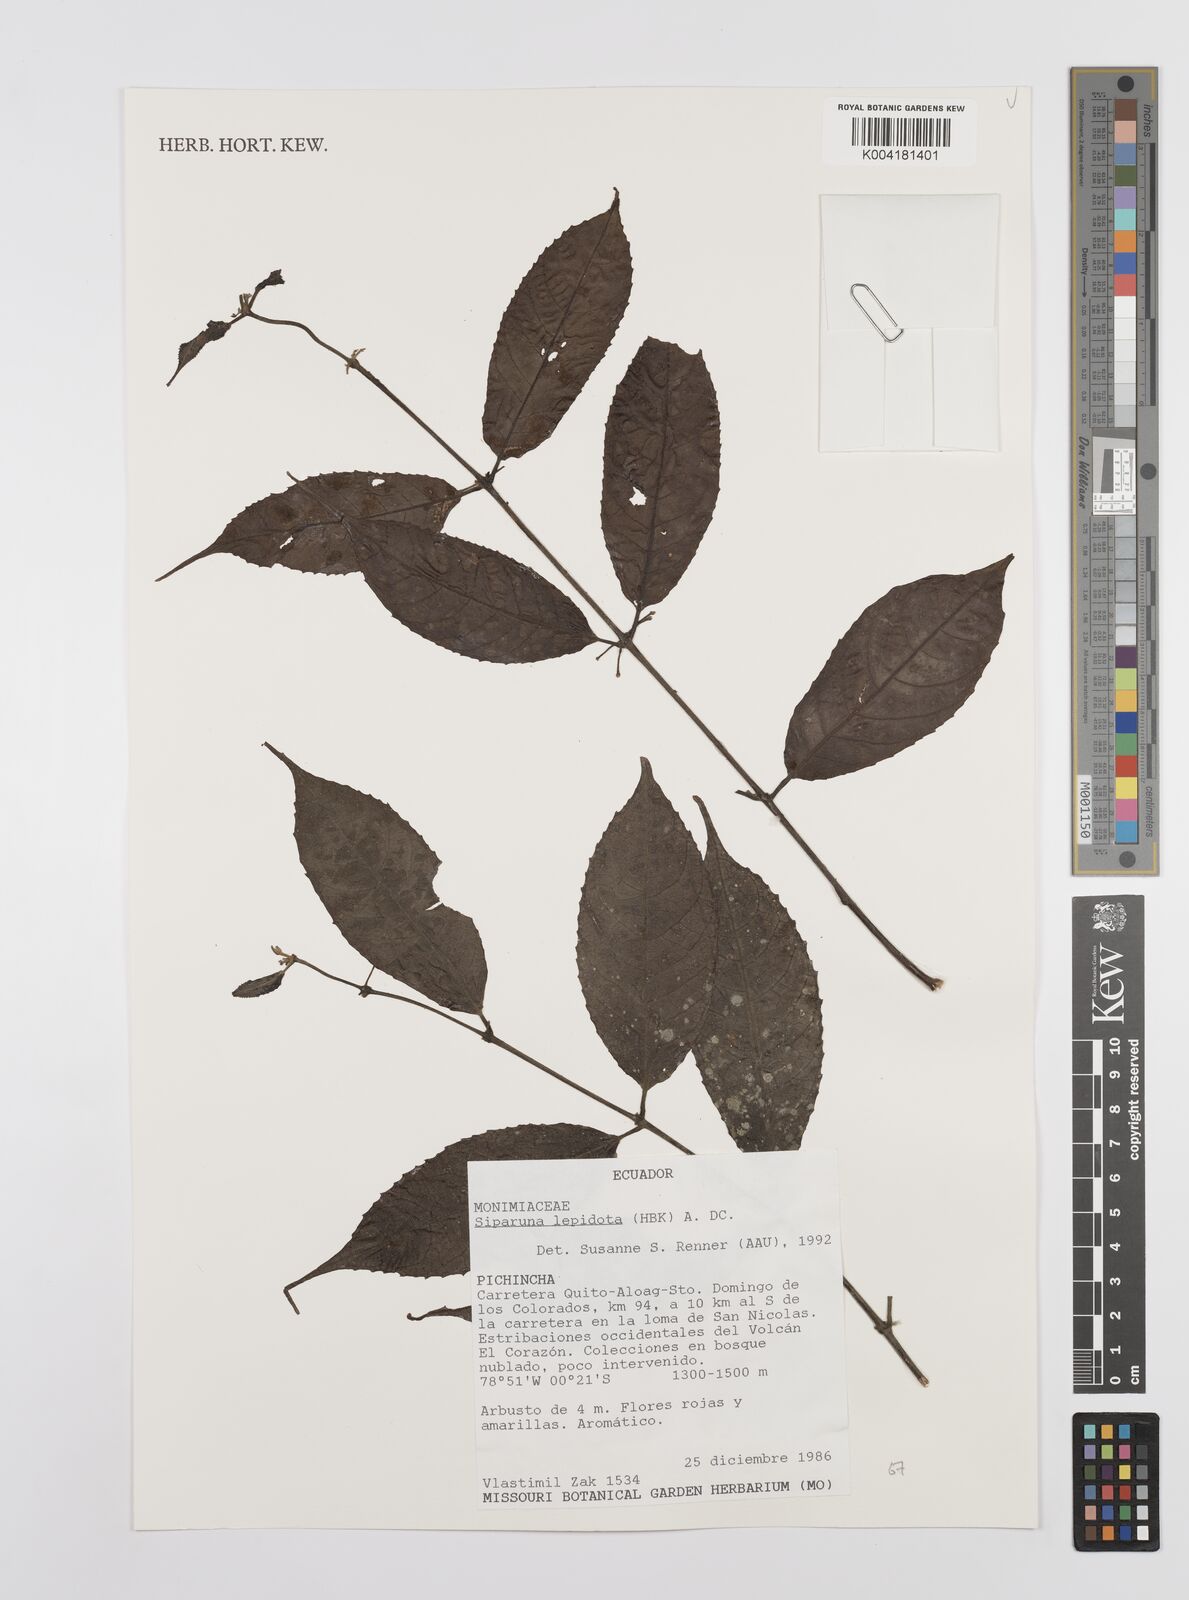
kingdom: Plantae
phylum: Tracheophyta
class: Magnoliopsida
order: Laurales
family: Siparunaceae
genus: Siparuna
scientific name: Siparuna lepidota
